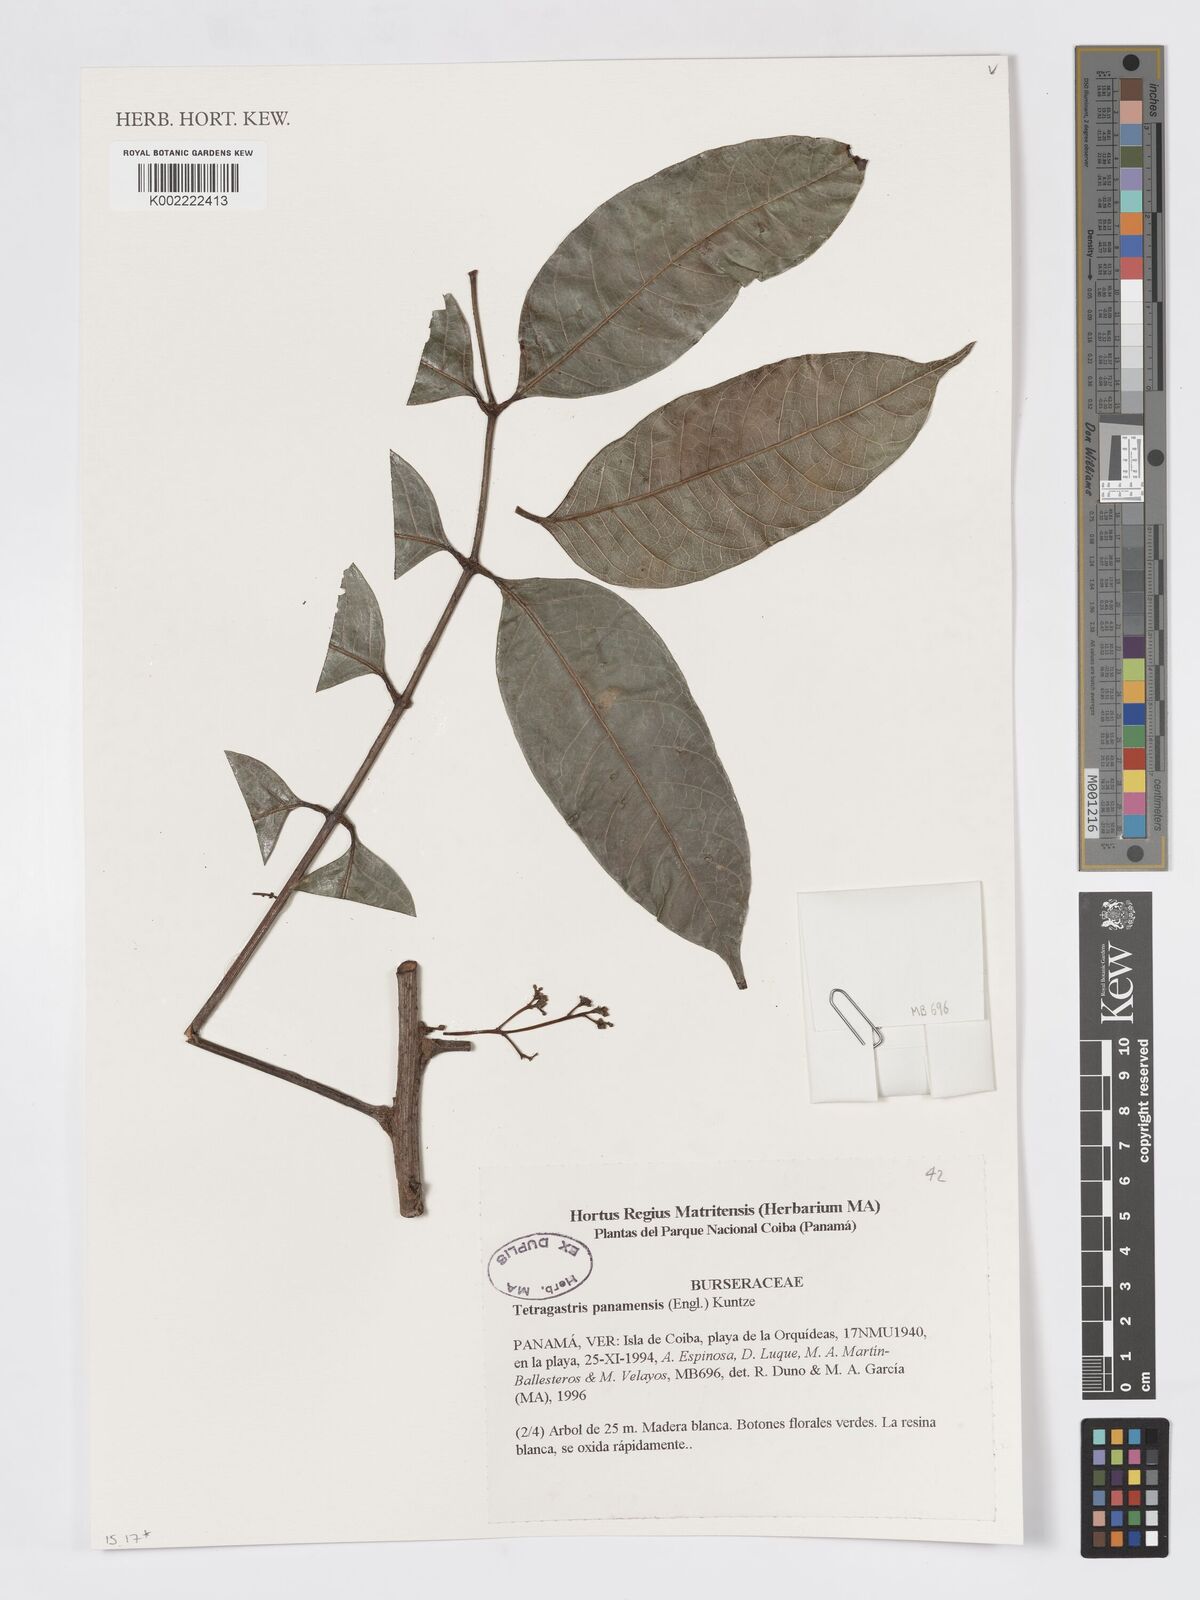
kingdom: Plantae
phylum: Tracheophyta
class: Magnoliopsida
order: Sapindales
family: Burseraceae
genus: Tetragastris
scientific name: Tetragastris panamensis
